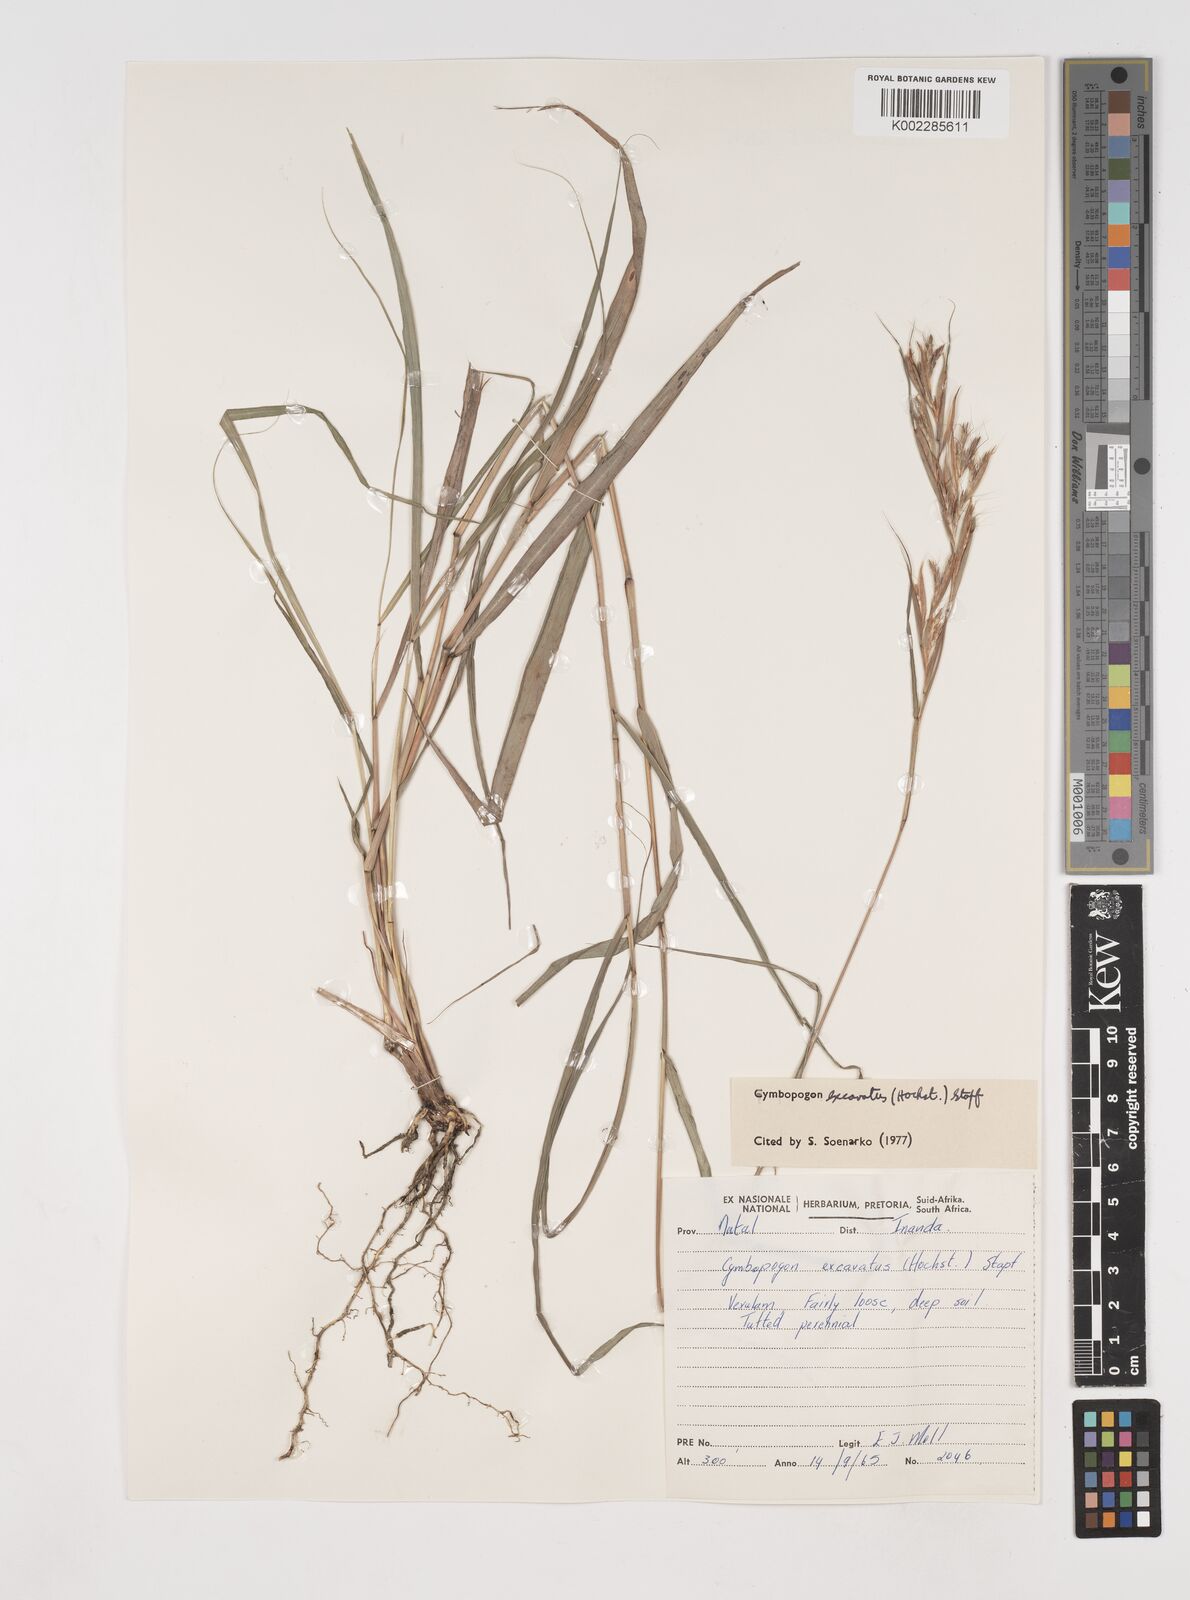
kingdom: Plantae
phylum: Tracheophyta
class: Liliopsida
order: Poales
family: Poaceae
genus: Cymbopogon
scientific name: Cymbopogon caesius
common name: Kachi grass
